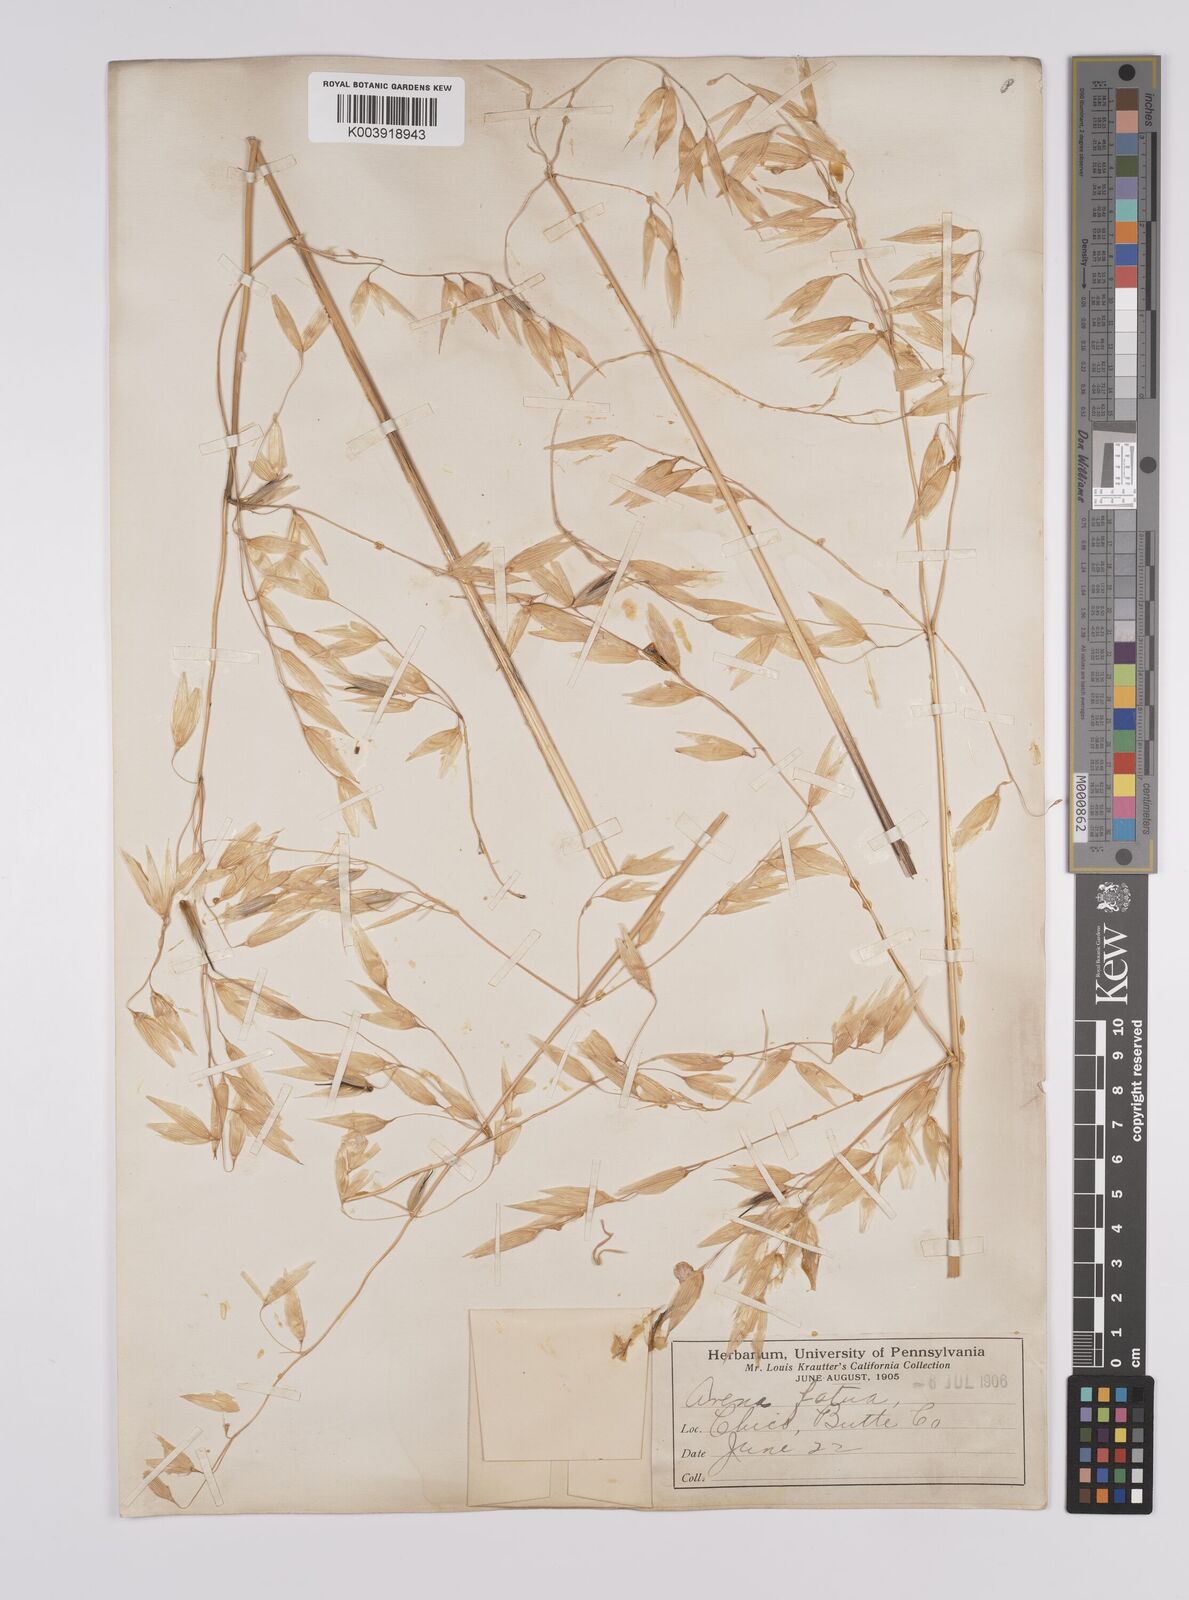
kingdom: Plantae
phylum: Tracheophyta
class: Liliopsida
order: Poales
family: Poaceae
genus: Avena
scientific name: Avena fatua
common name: Wild oat
